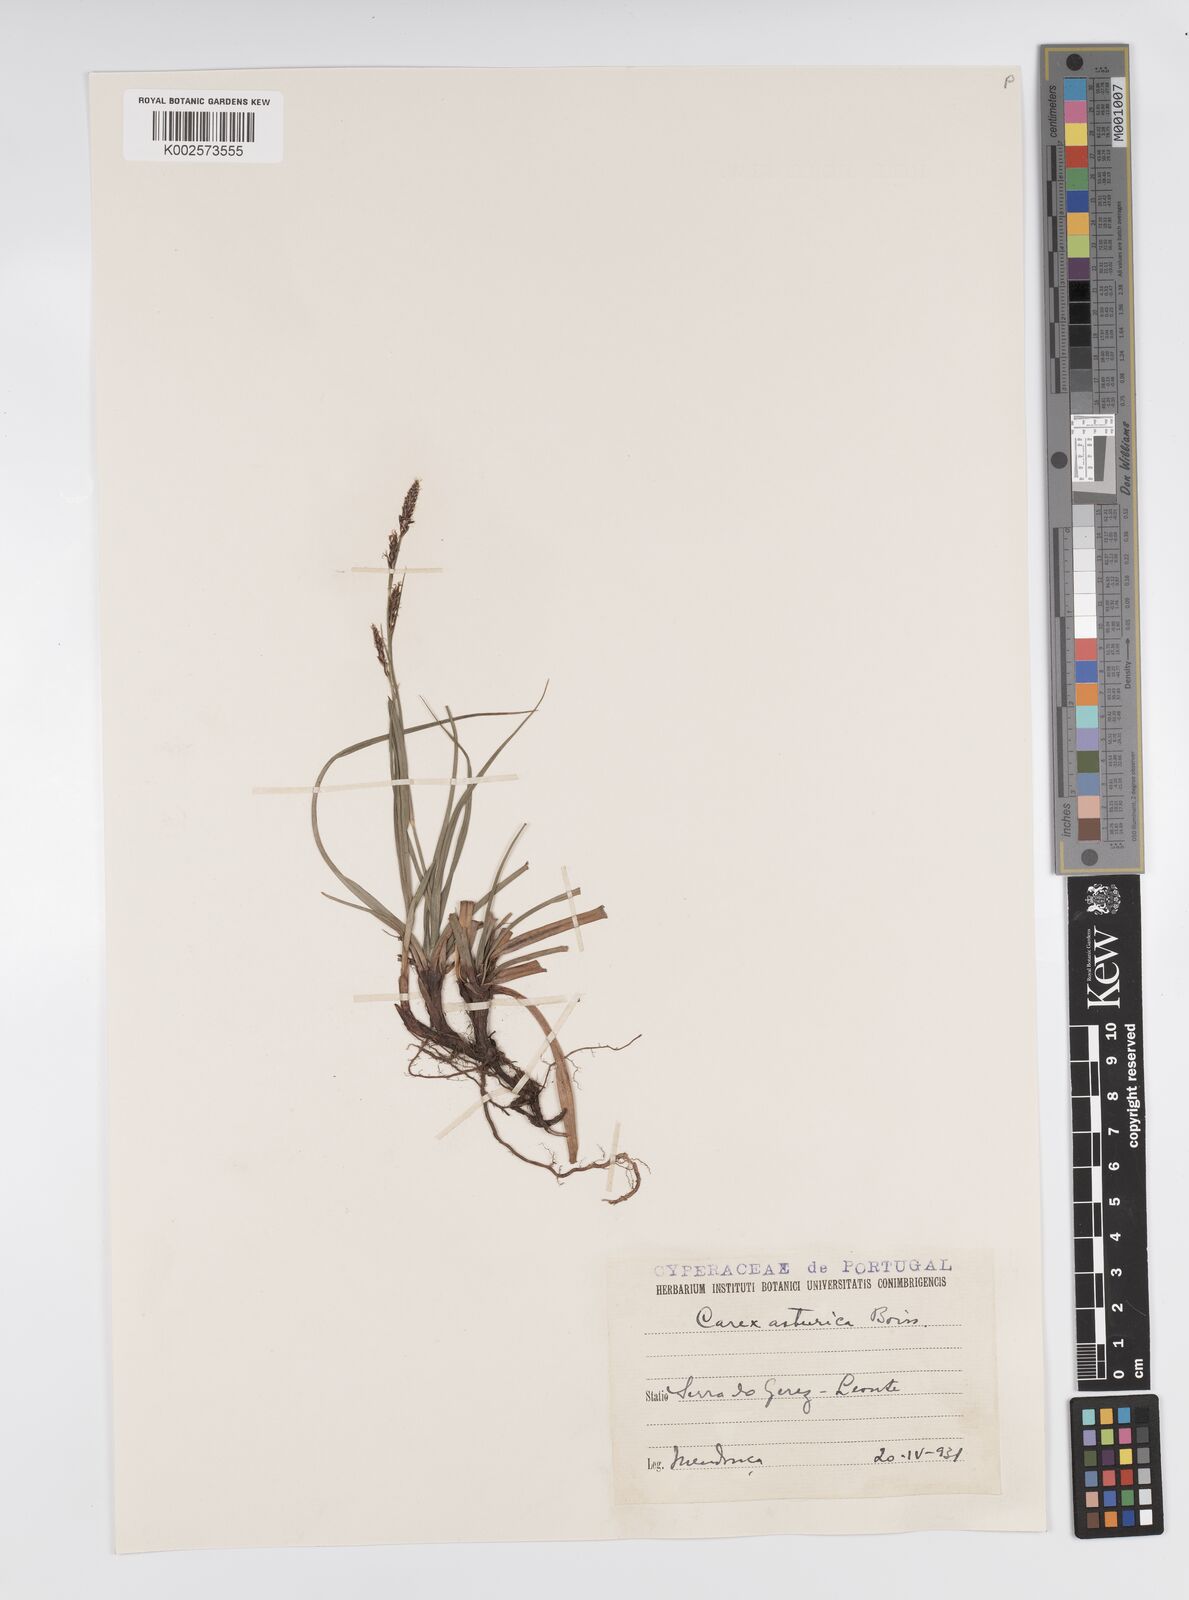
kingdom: Plantae
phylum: Tracheophyta
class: Liliopsida
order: Poales
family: Cyperaceae
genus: Carex
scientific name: Carex asturica
